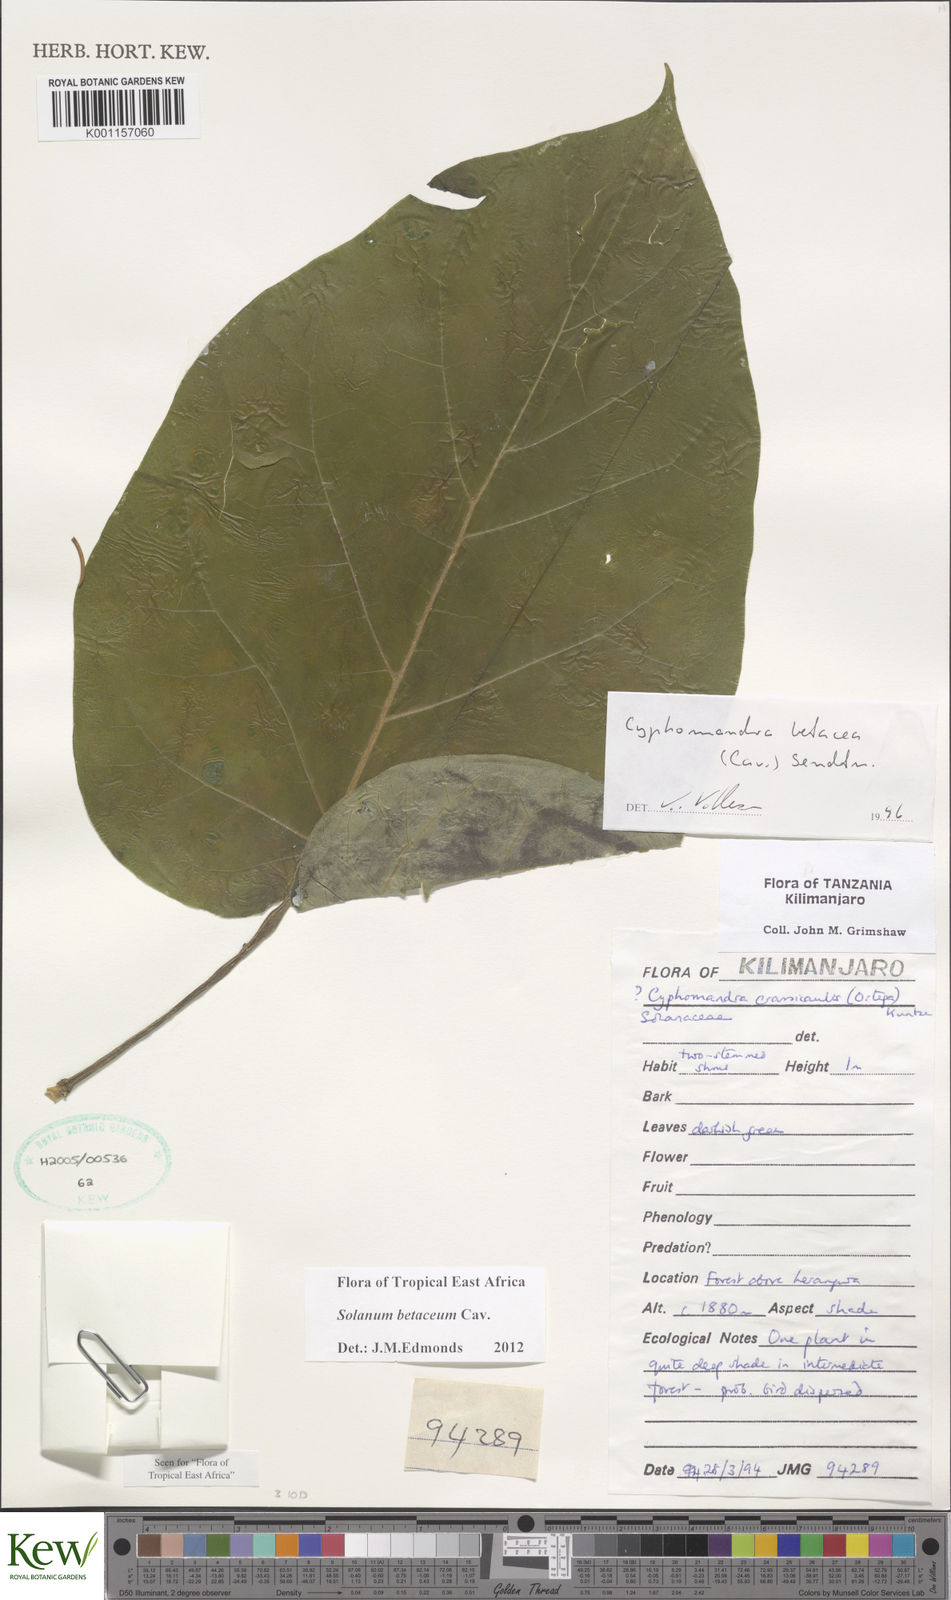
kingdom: Plantae
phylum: Tracheophyta
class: Magnoliopsida
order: Solanales
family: Solanaceae
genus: Solanum
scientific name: Solanum betaceum
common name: Tamarillo
